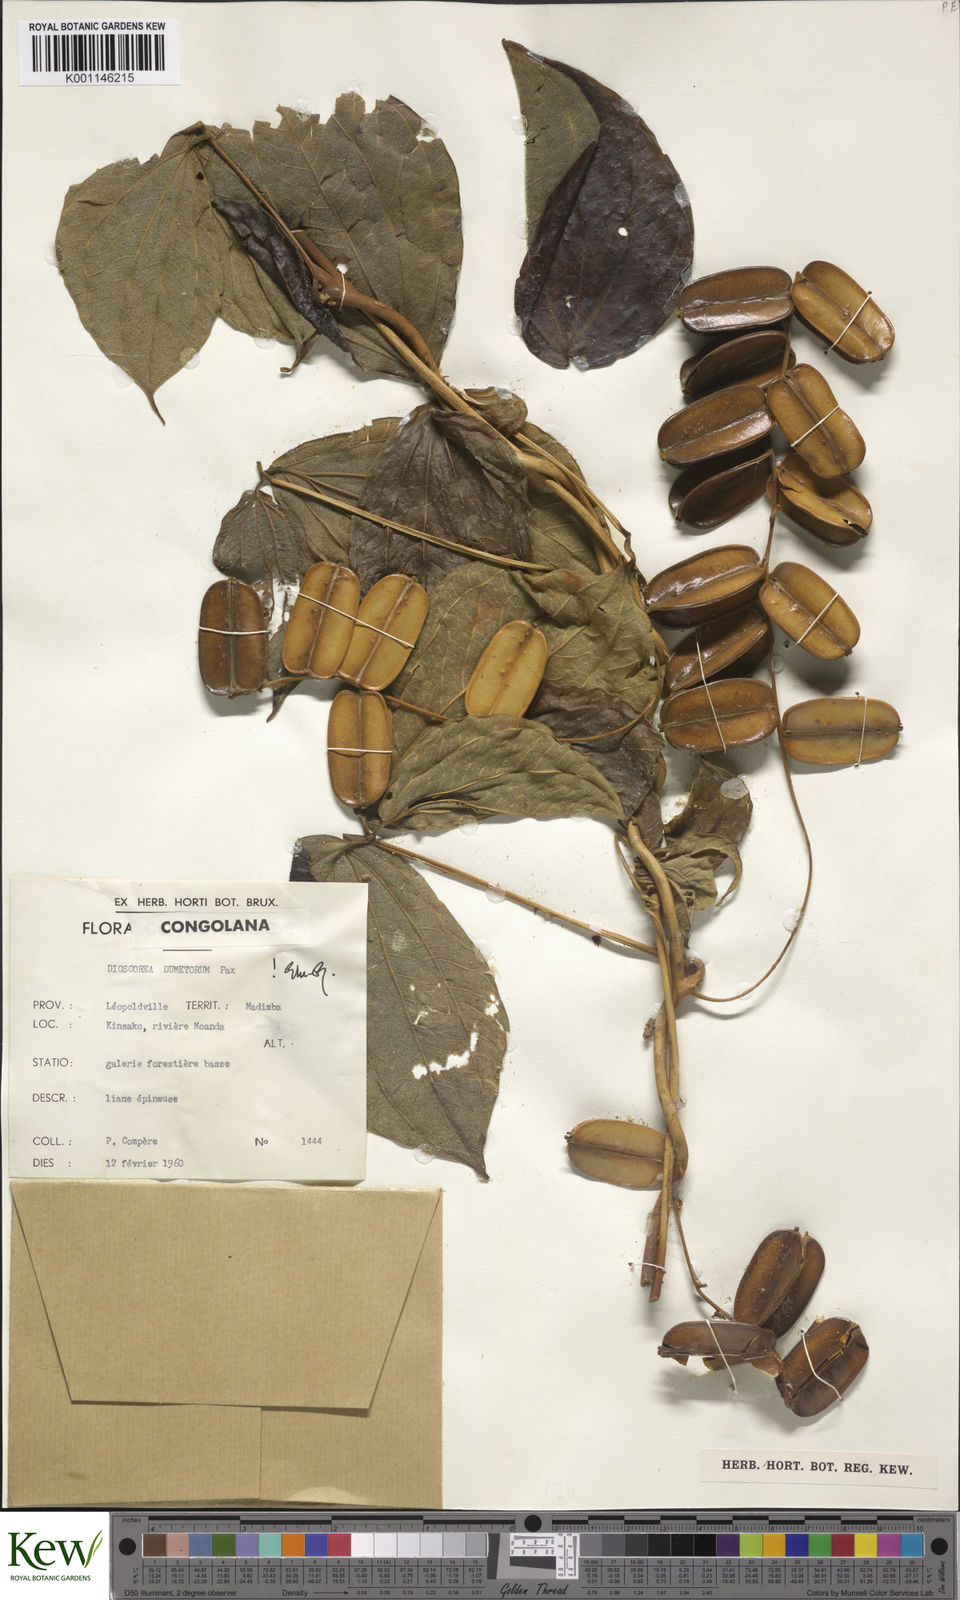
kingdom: Plantae
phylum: Tracheophyta
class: Liliopsida
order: Dioscoreales
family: Dioscoreaceae
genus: Dioscorea
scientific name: Dioscorea dumetorum
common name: African bitter yam
